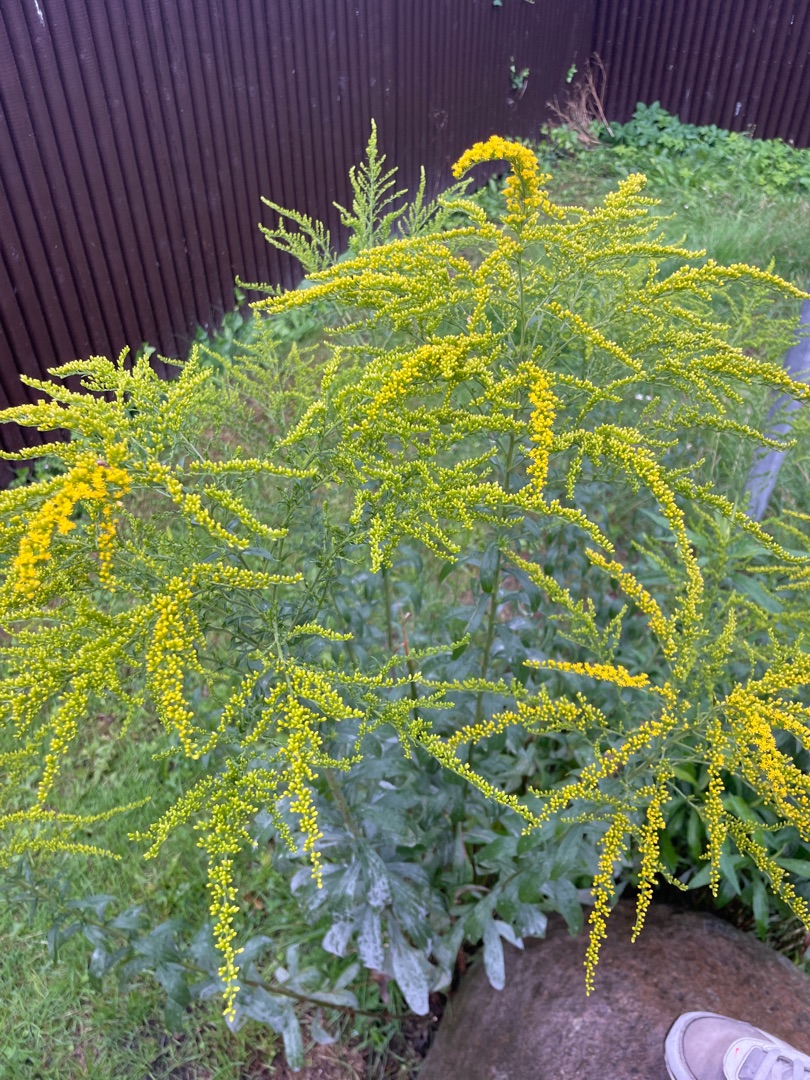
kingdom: Plantae
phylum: Tracheophyta
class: Magnoliopsida
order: Asterales
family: Asteraceae
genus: Solidago
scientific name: Solidago
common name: Gyldenrisslægten
